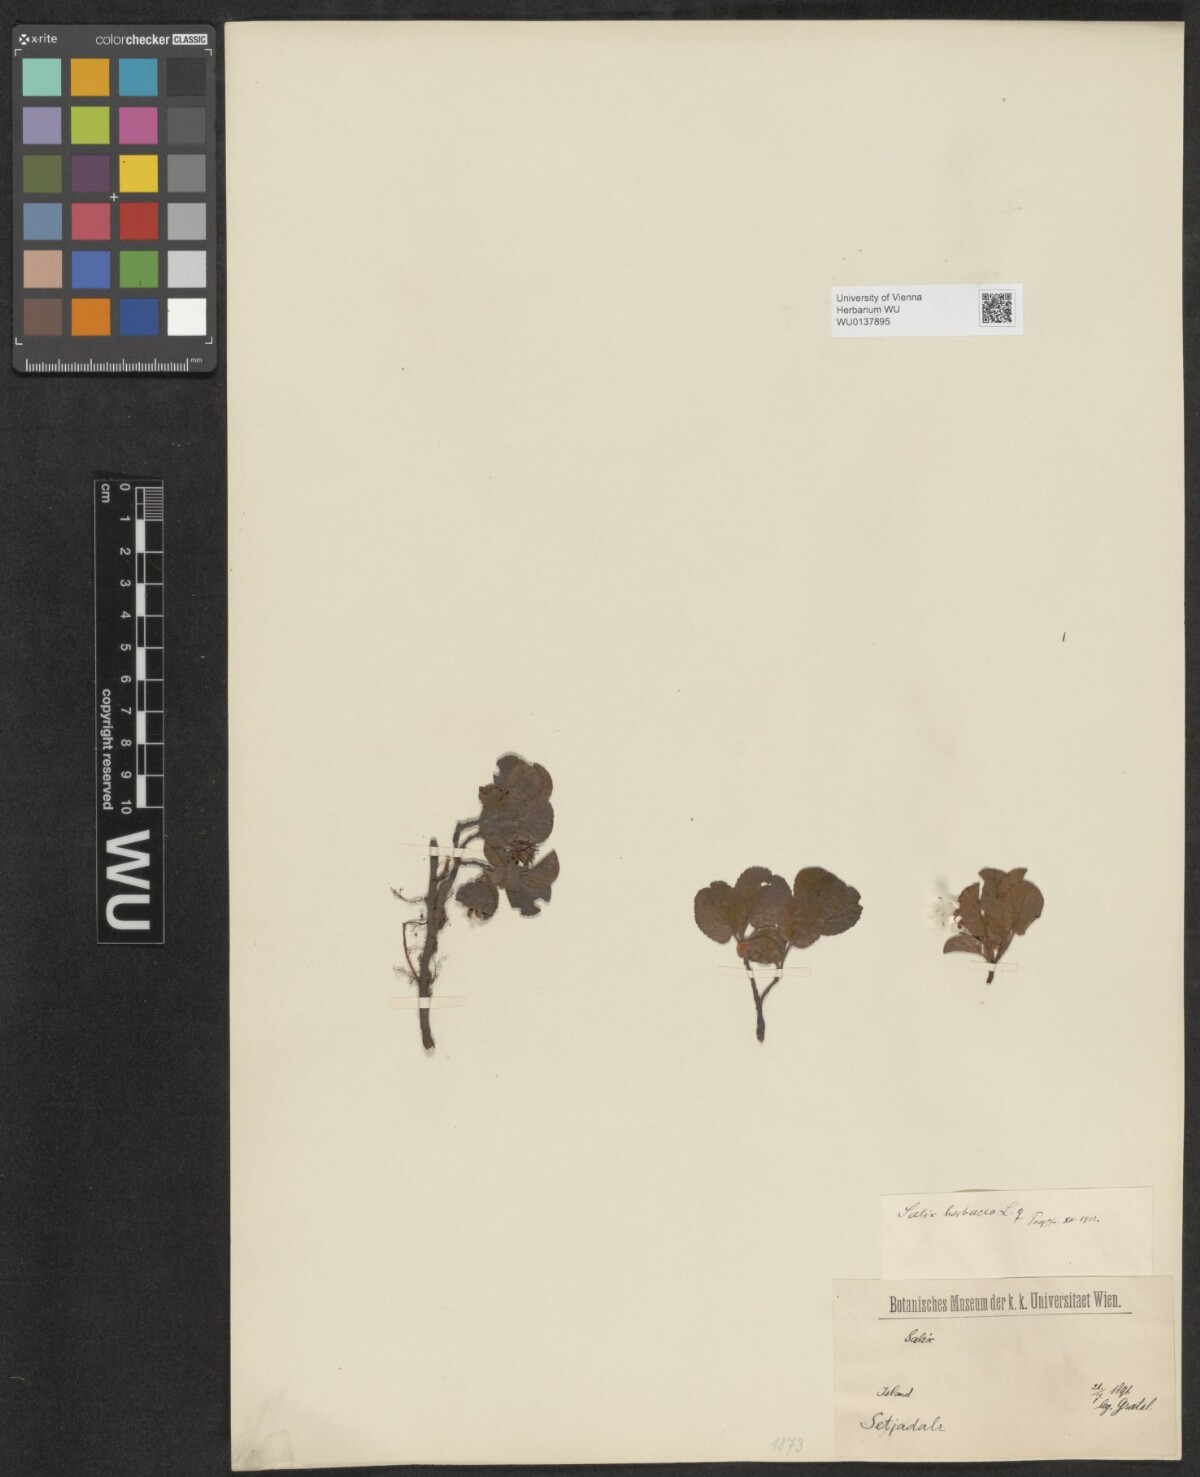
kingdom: Plantae
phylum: Tracheophyta
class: Magnoliopsida
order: Malpighiales
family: Salicaceae
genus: Salix
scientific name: Salix herbacea
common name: Dwarf willow
